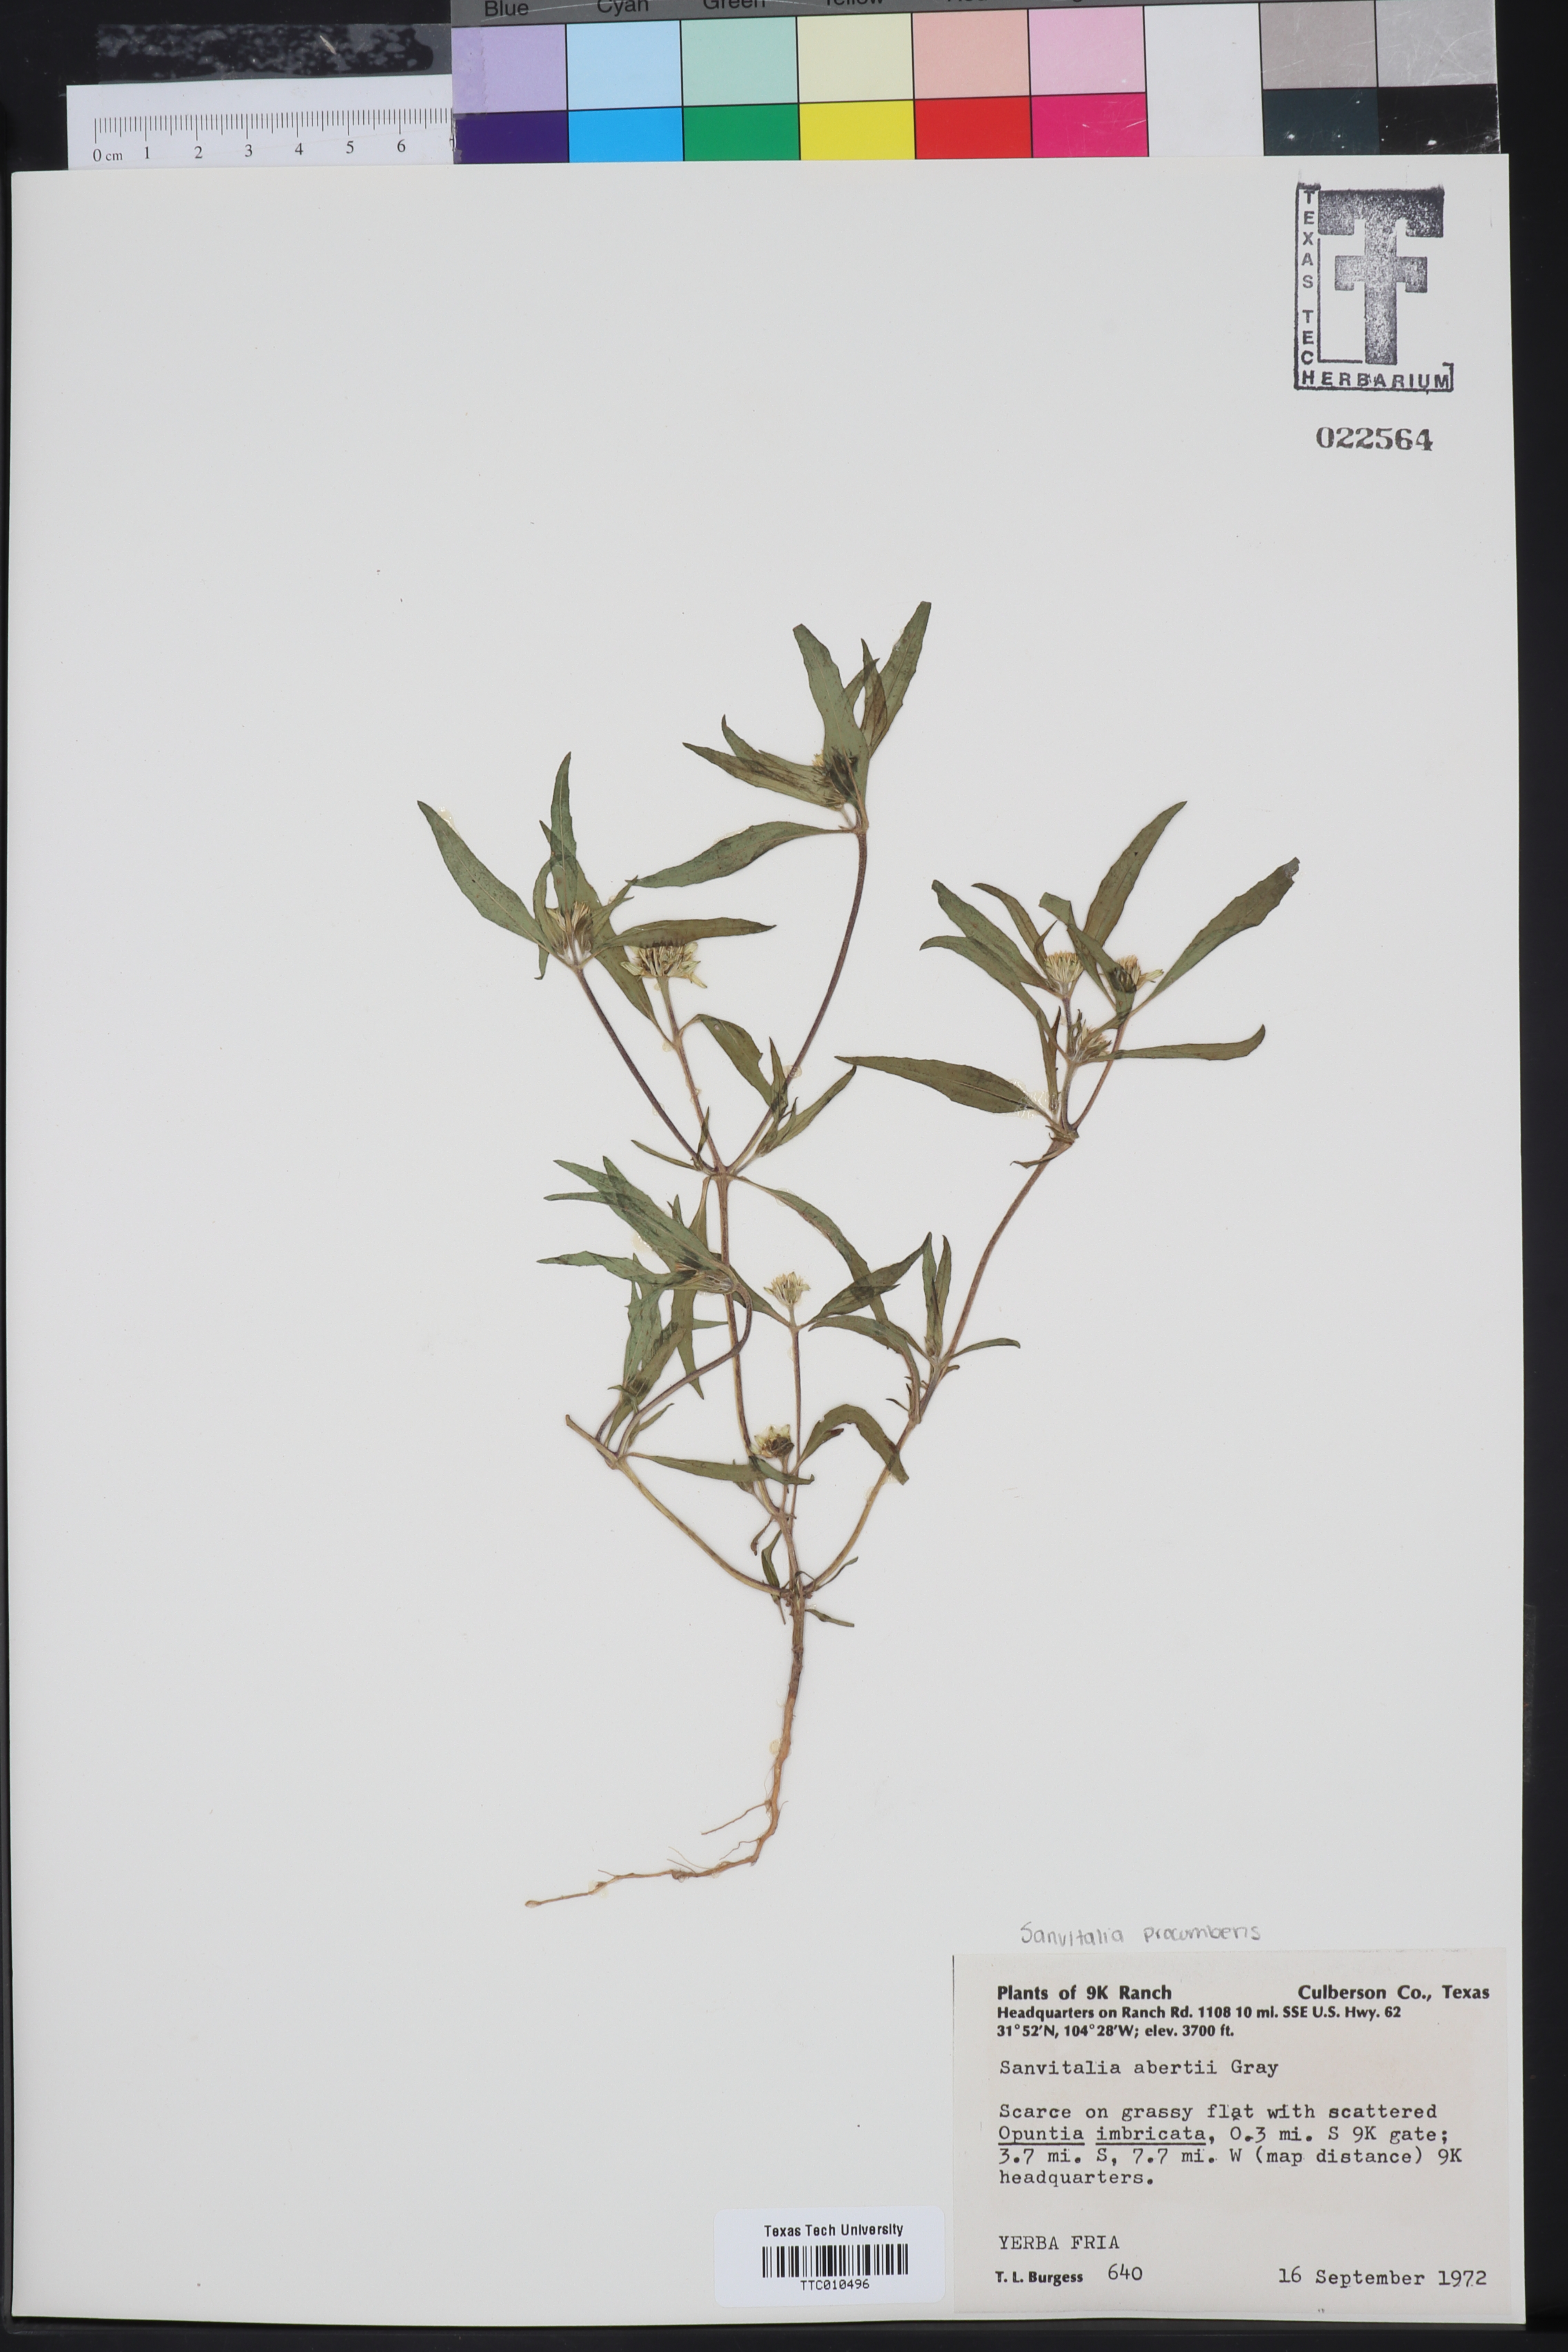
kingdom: Plantae
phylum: Tracheophyta
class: Magnoliopsida
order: Asterales
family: Asteraceae
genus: Sanvitalia
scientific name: Sanvitalia abertii
